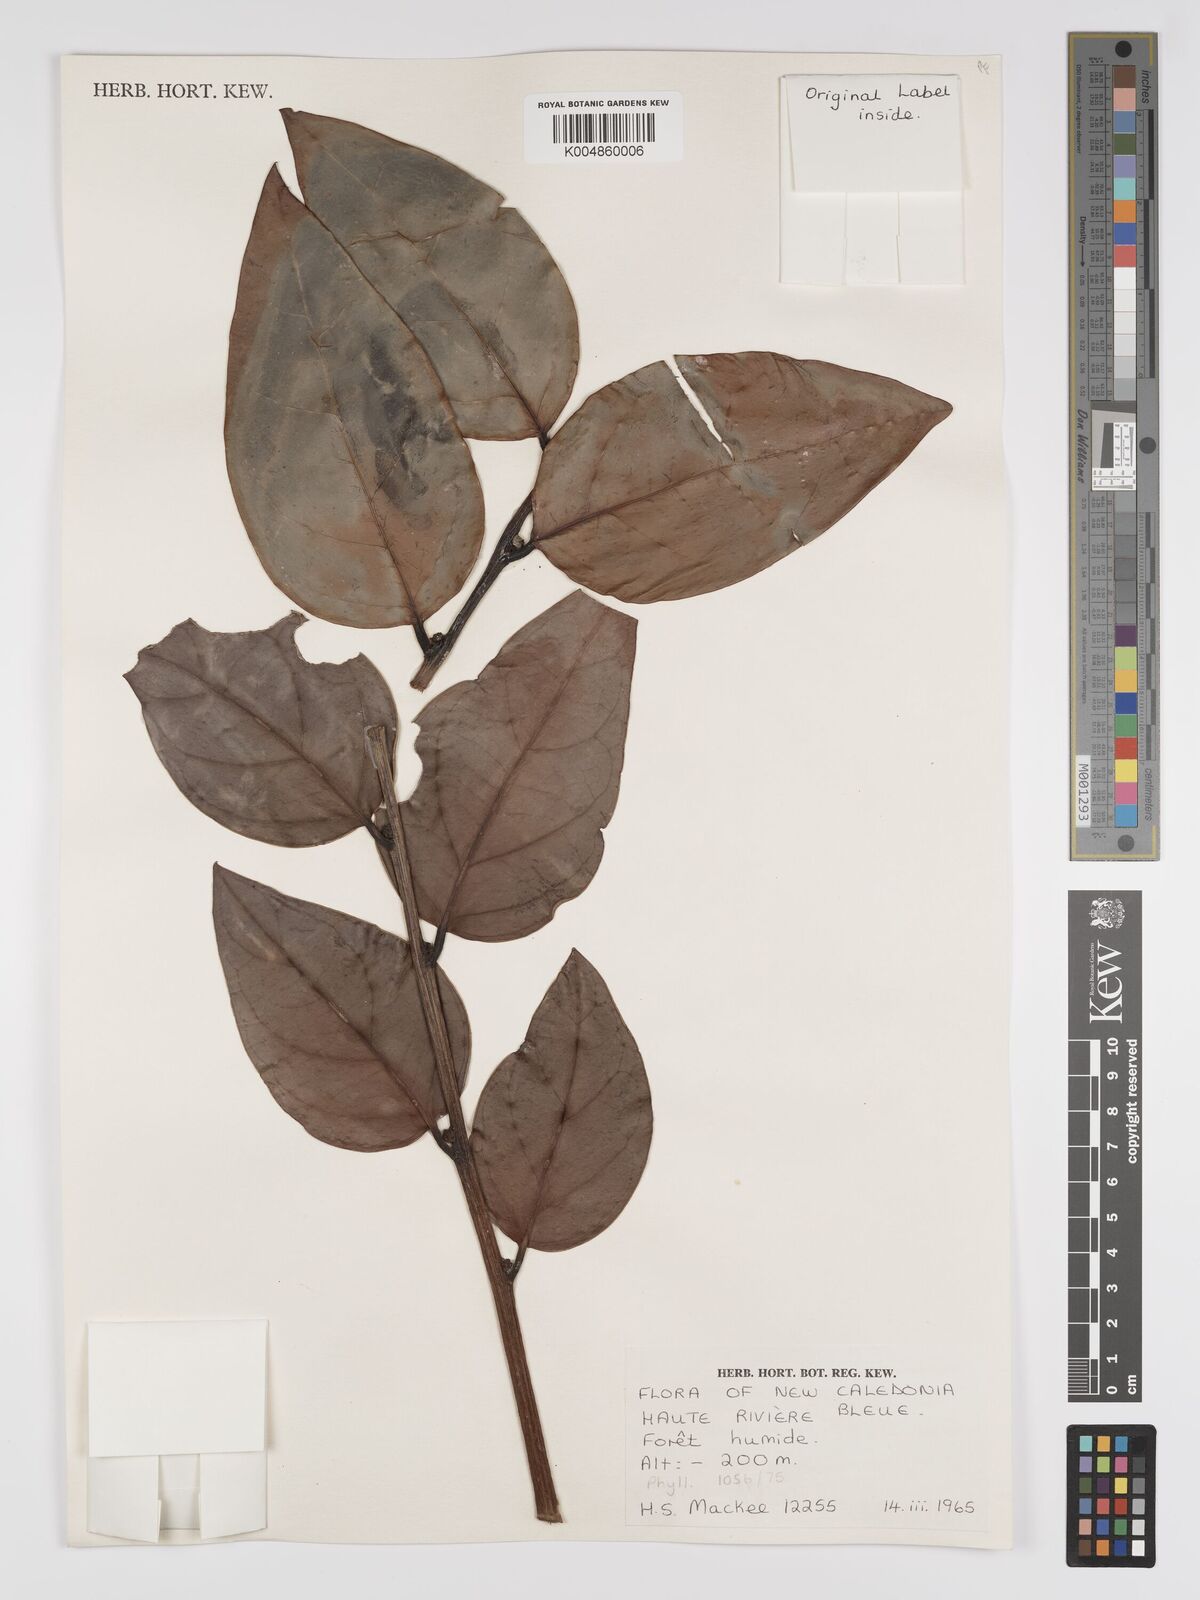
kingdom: Plantae
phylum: Tracheophyta
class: Magnoliopsida
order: Malpighiales
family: Phyllanthaceae
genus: Phyllanthus
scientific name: Phyllanthus
